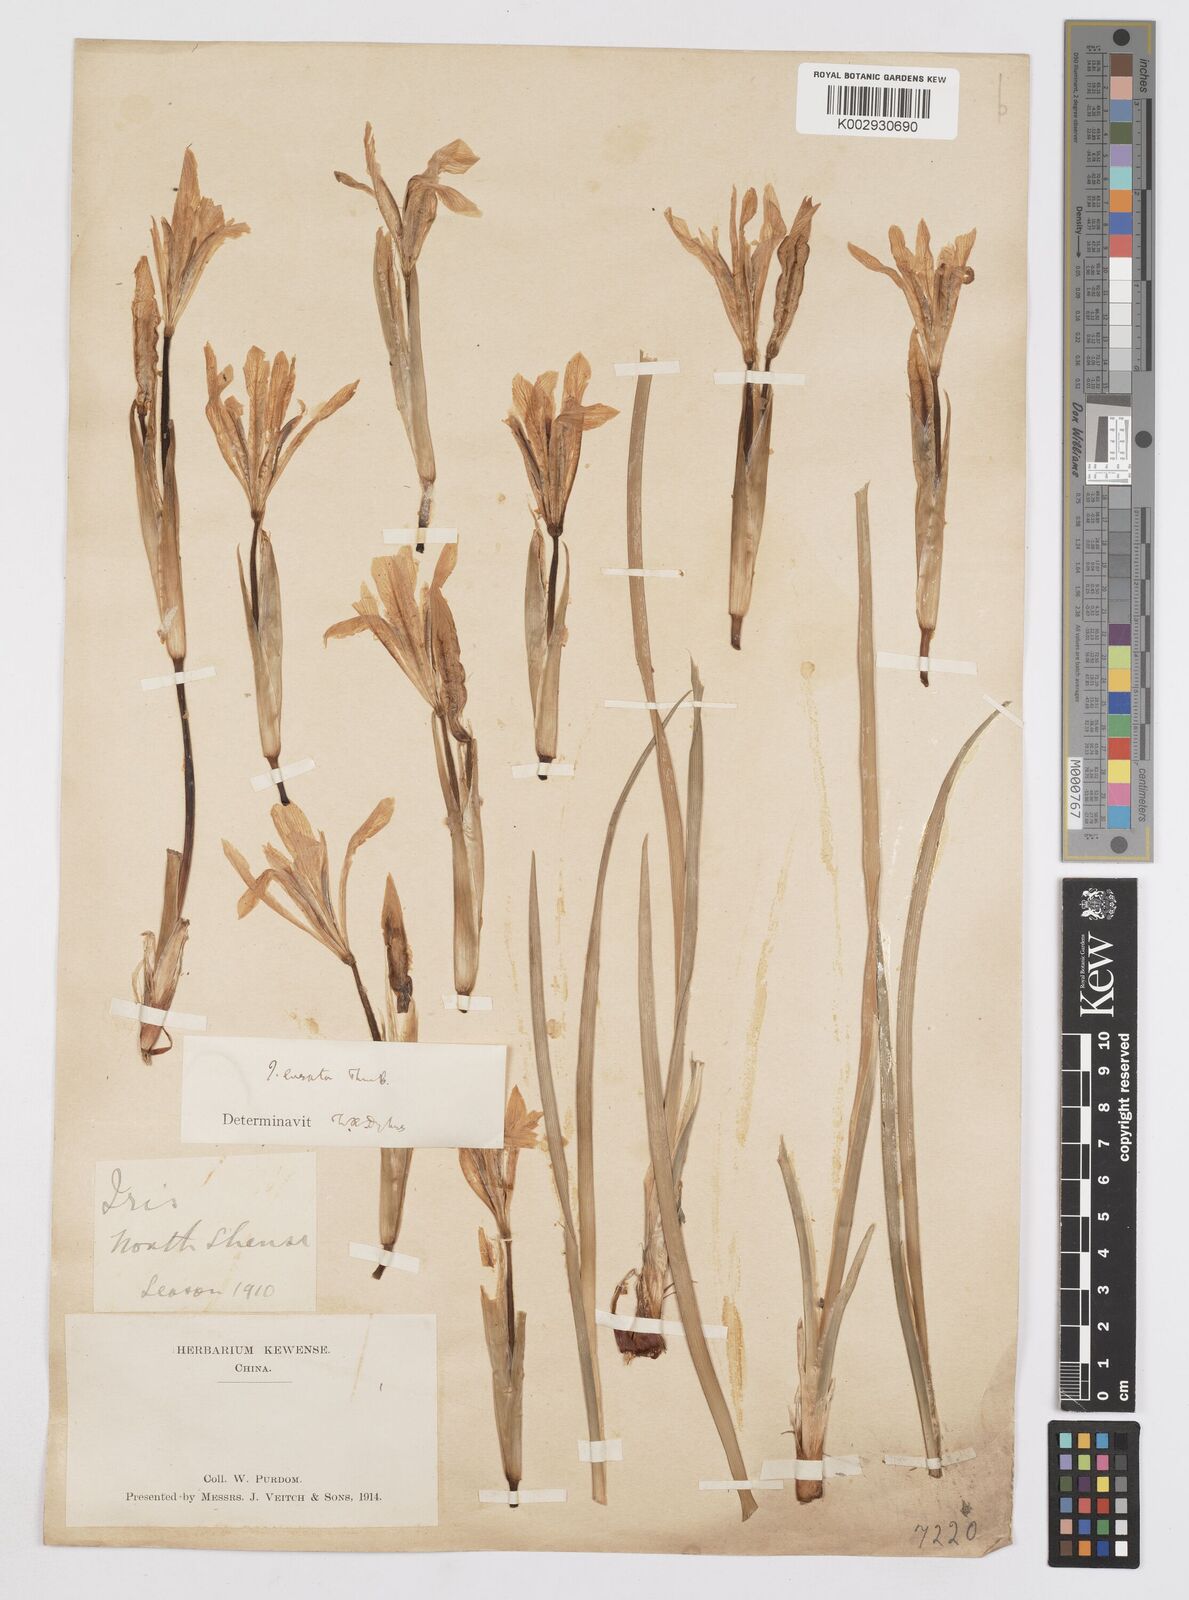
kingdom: Plantae
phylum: Tracheophyta
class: Liliopsida
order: Asparagales
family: Iridaceae
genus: Iris
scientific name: Iris ensata
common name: Beaked iris
